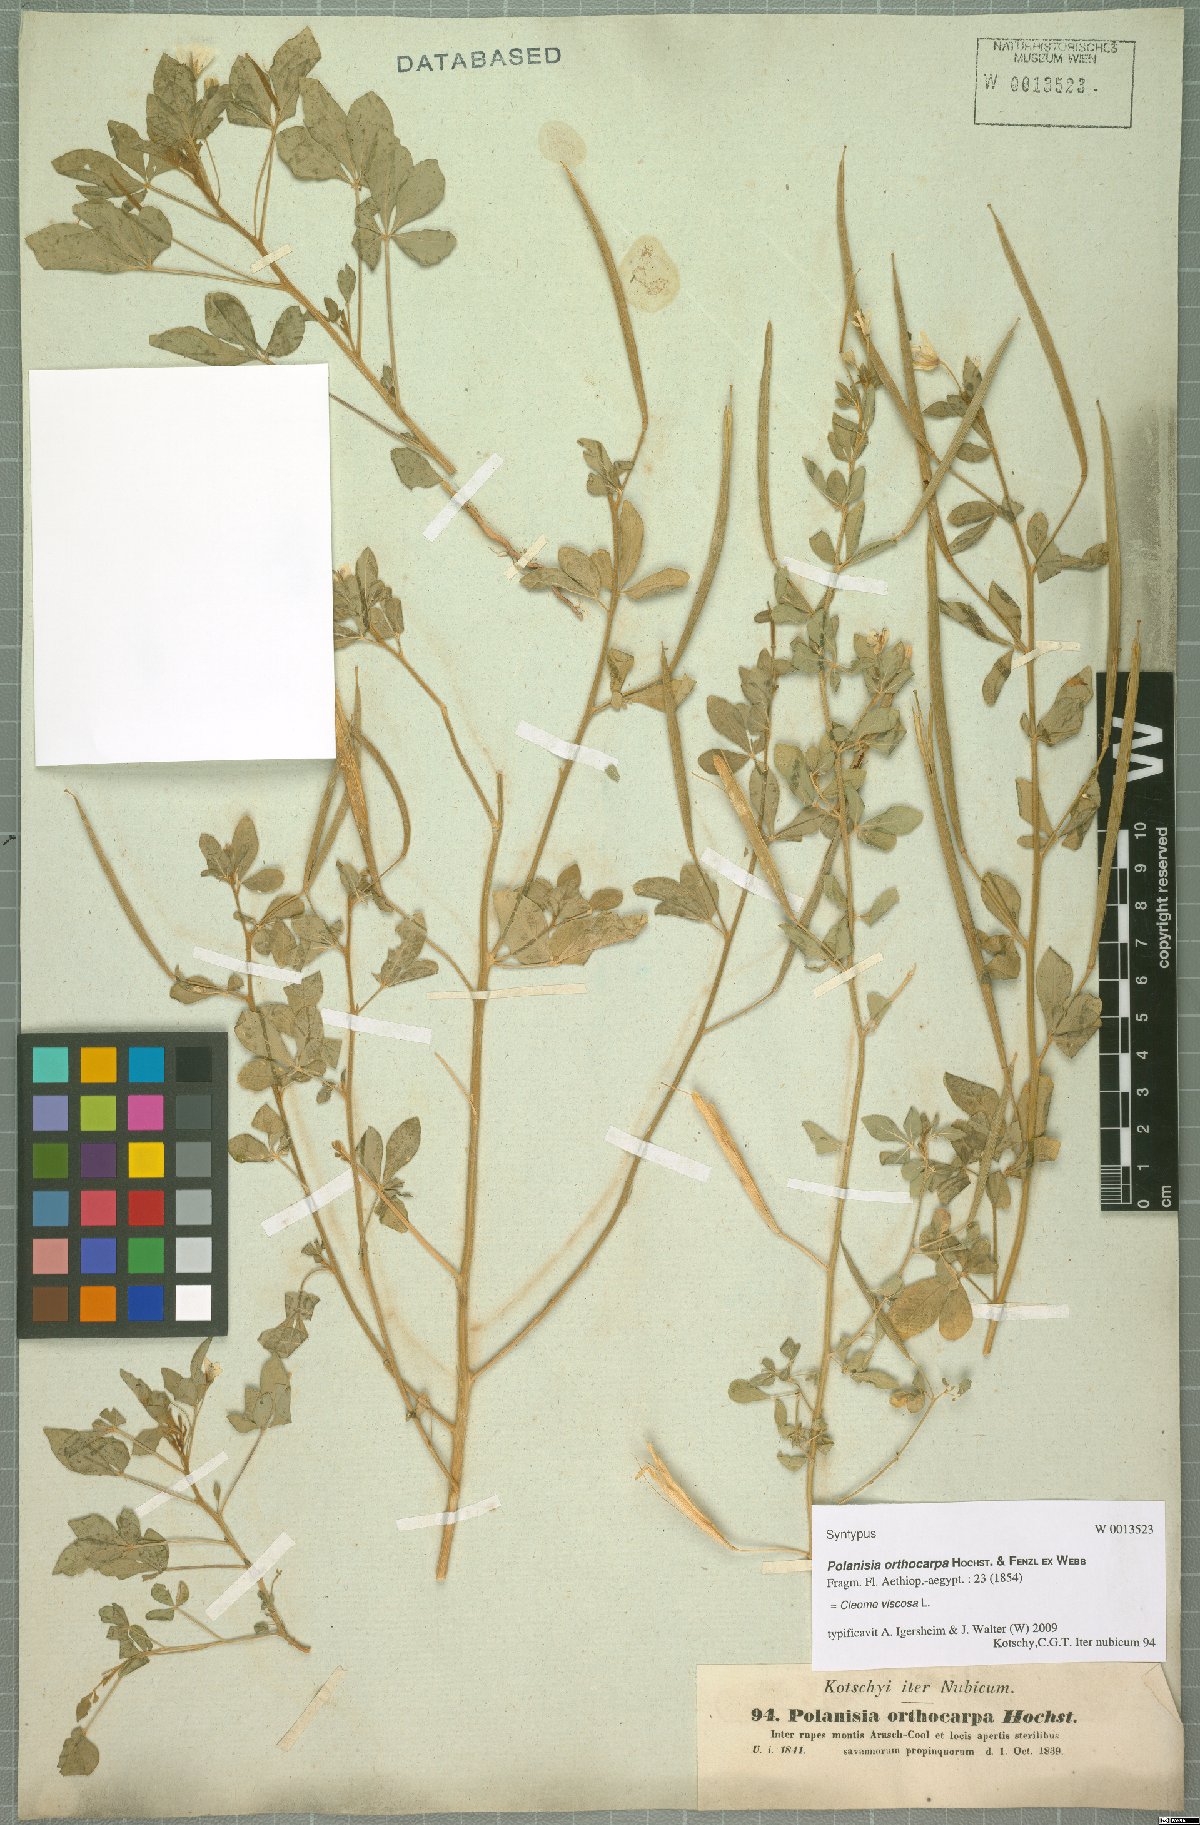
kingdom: Plantae
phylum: Tracheophyta
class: Magnoliopsida
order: Brassicales
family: Cleomaceae
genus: Arivela
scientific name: Arivela viscosa
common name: Asian spiderflower
